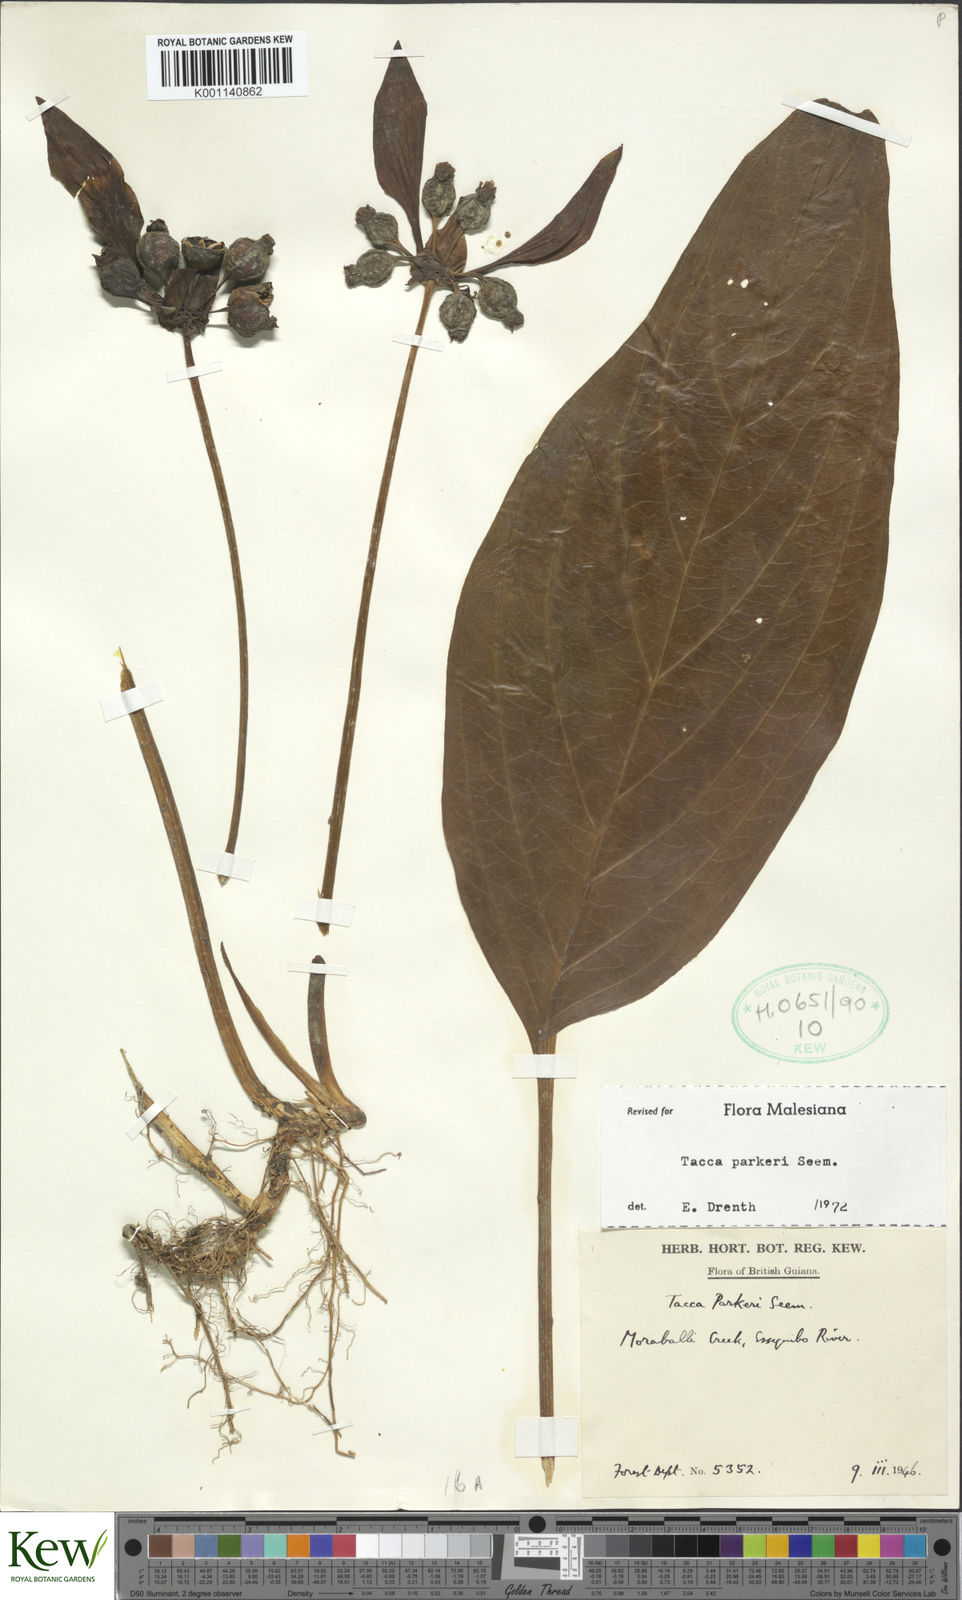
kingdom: Plantae
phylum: Tracheophyta
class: Liliopsida
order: Dioscoreales
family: Dioscoreaceae
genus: Tacca
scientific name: Tacca parkeri
